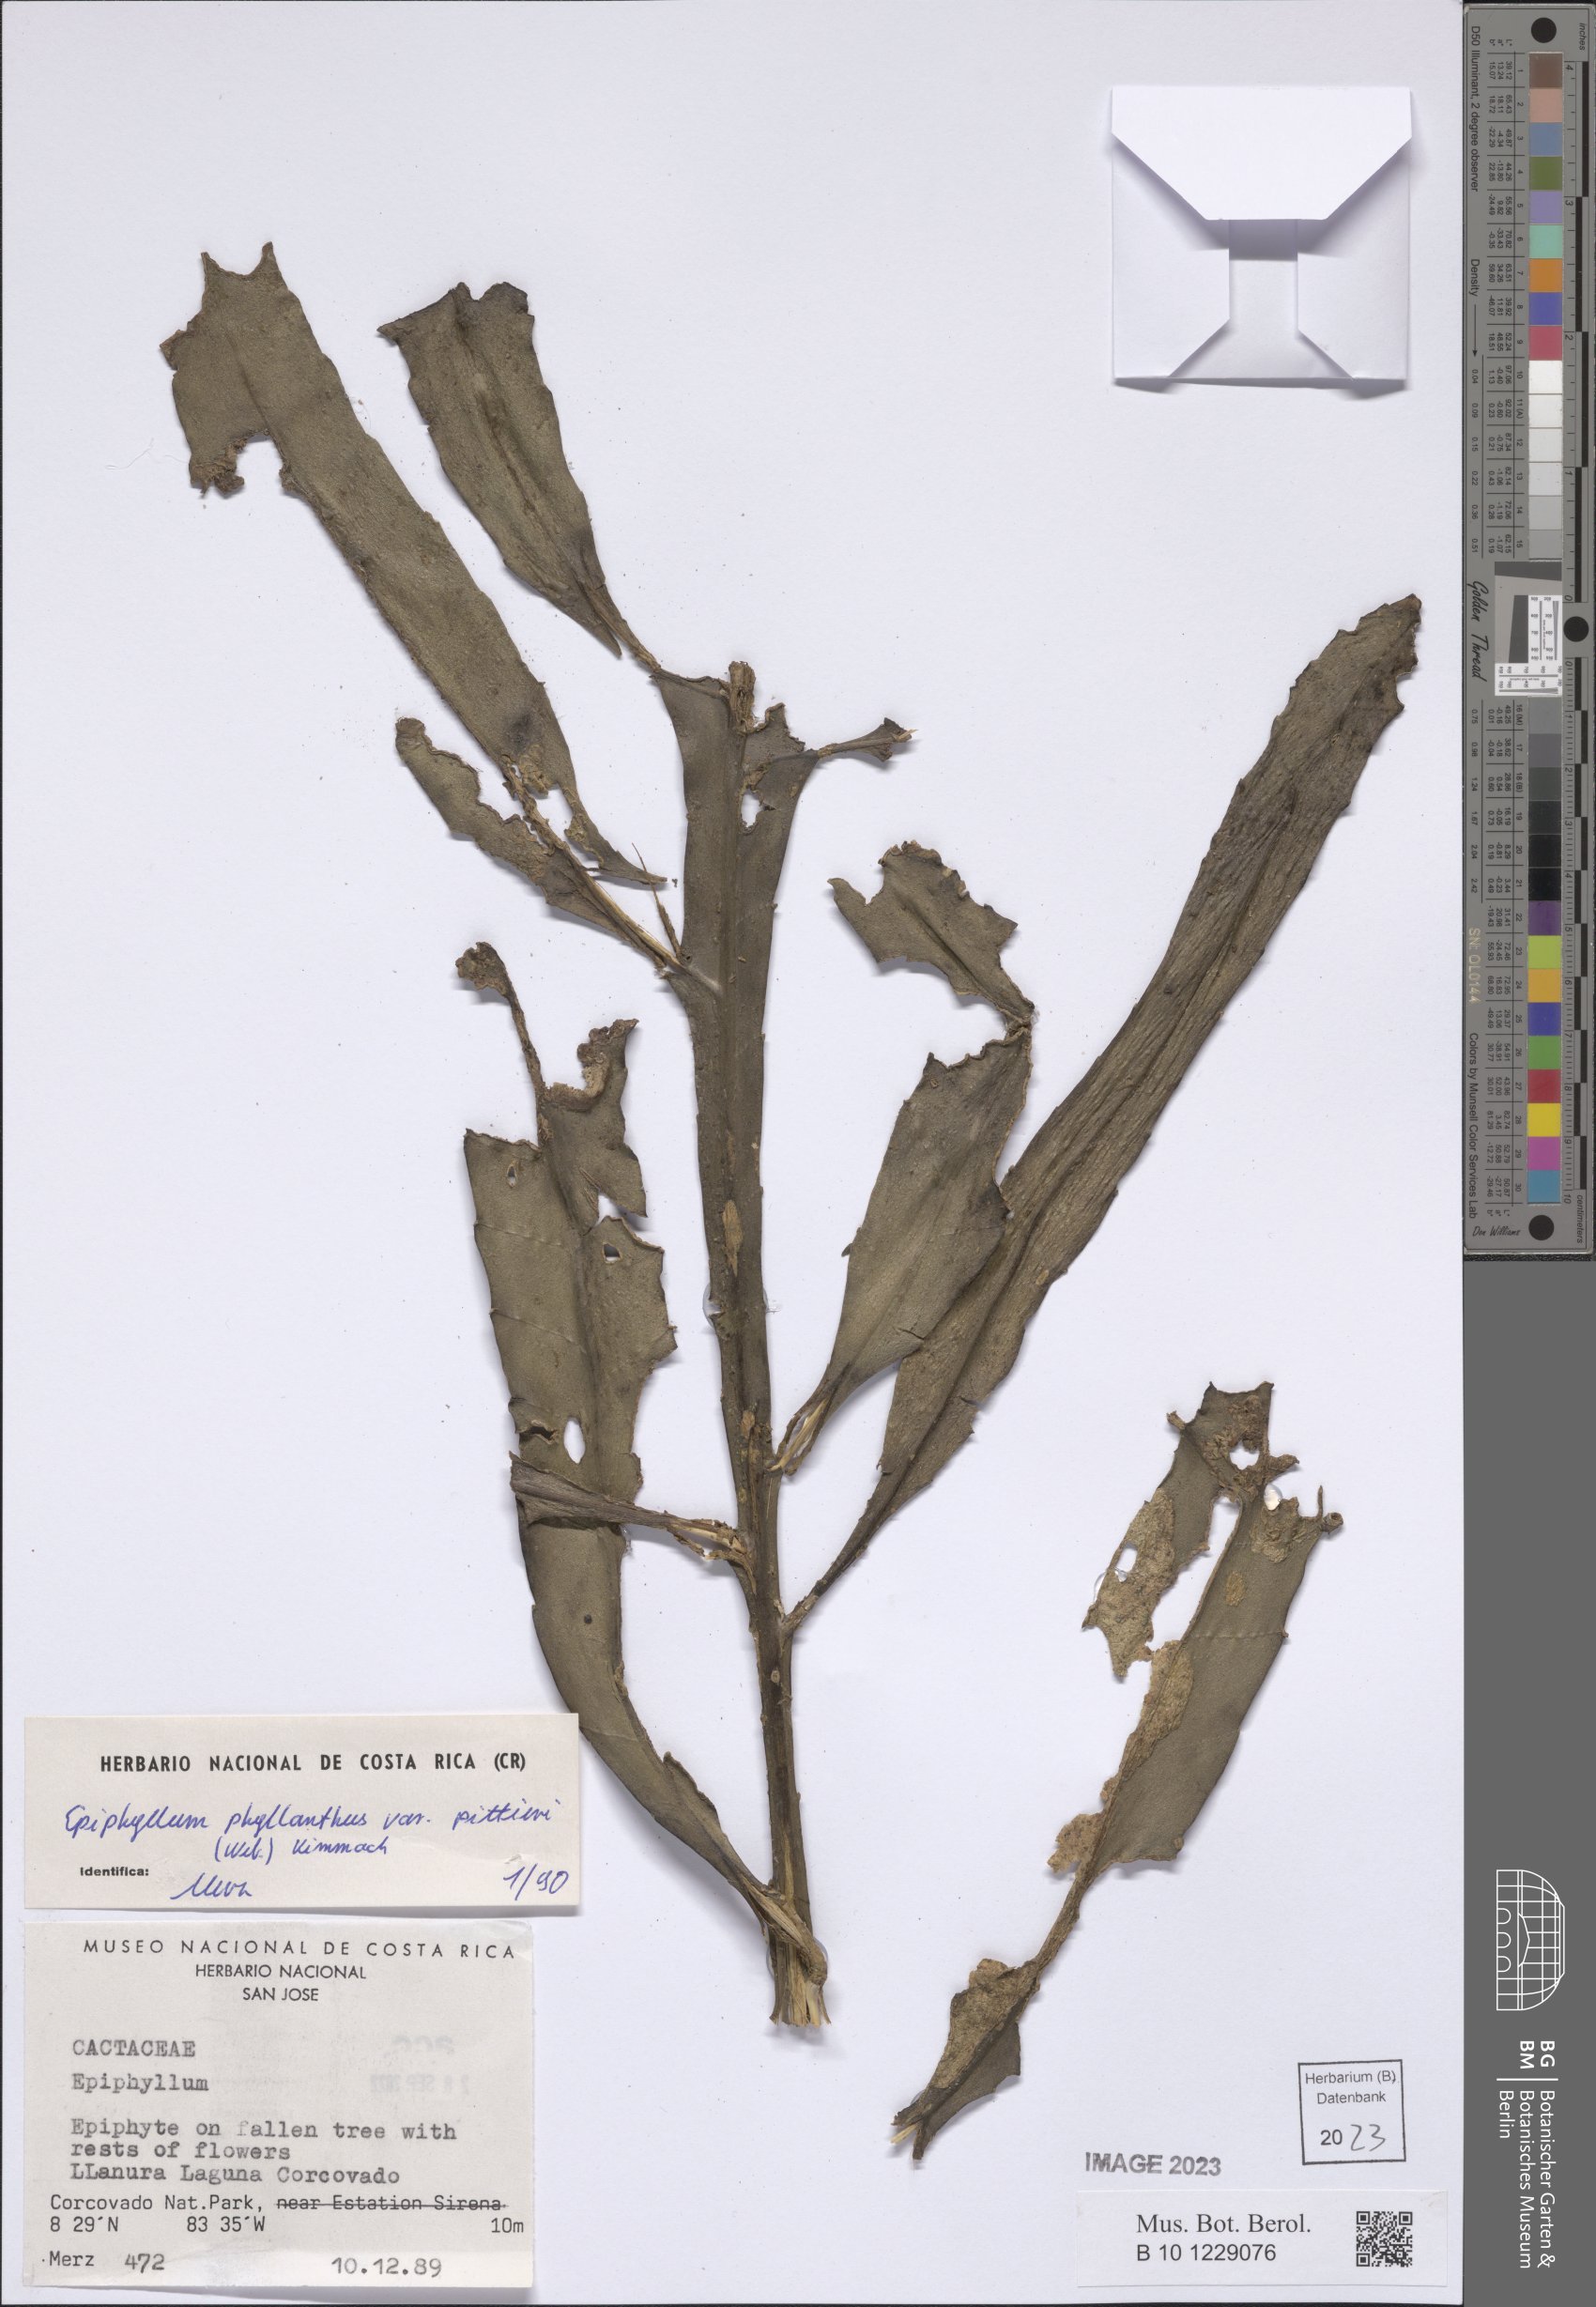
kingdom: Plantae
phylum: Tracheophyta
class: Magnoliopsida
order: Caryophyllales
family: Cactaceae
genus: Epiphyllum
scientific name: Epiphyllum hookeri
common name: Climbing cactus
